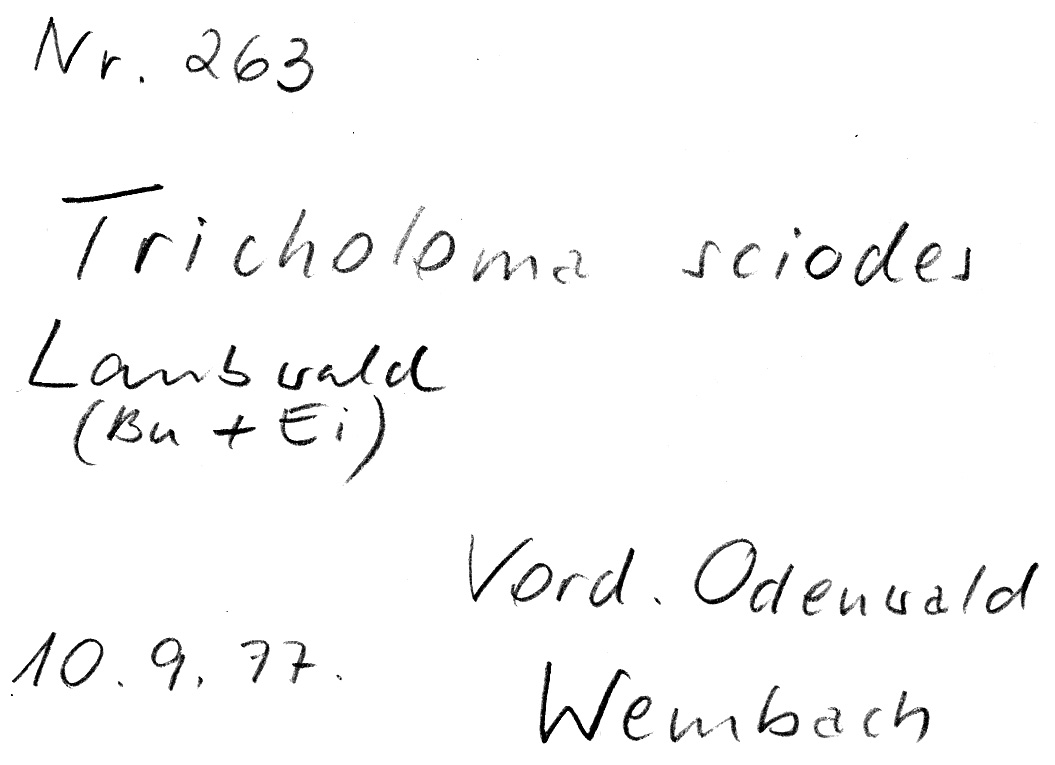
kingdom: Fungi
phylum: Basidiomycota
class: Agaricomycetes
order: Agaricales
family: Tricholomataceae
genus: Tricholoma
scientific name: Tricholoma sciodes
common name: Beech knight
